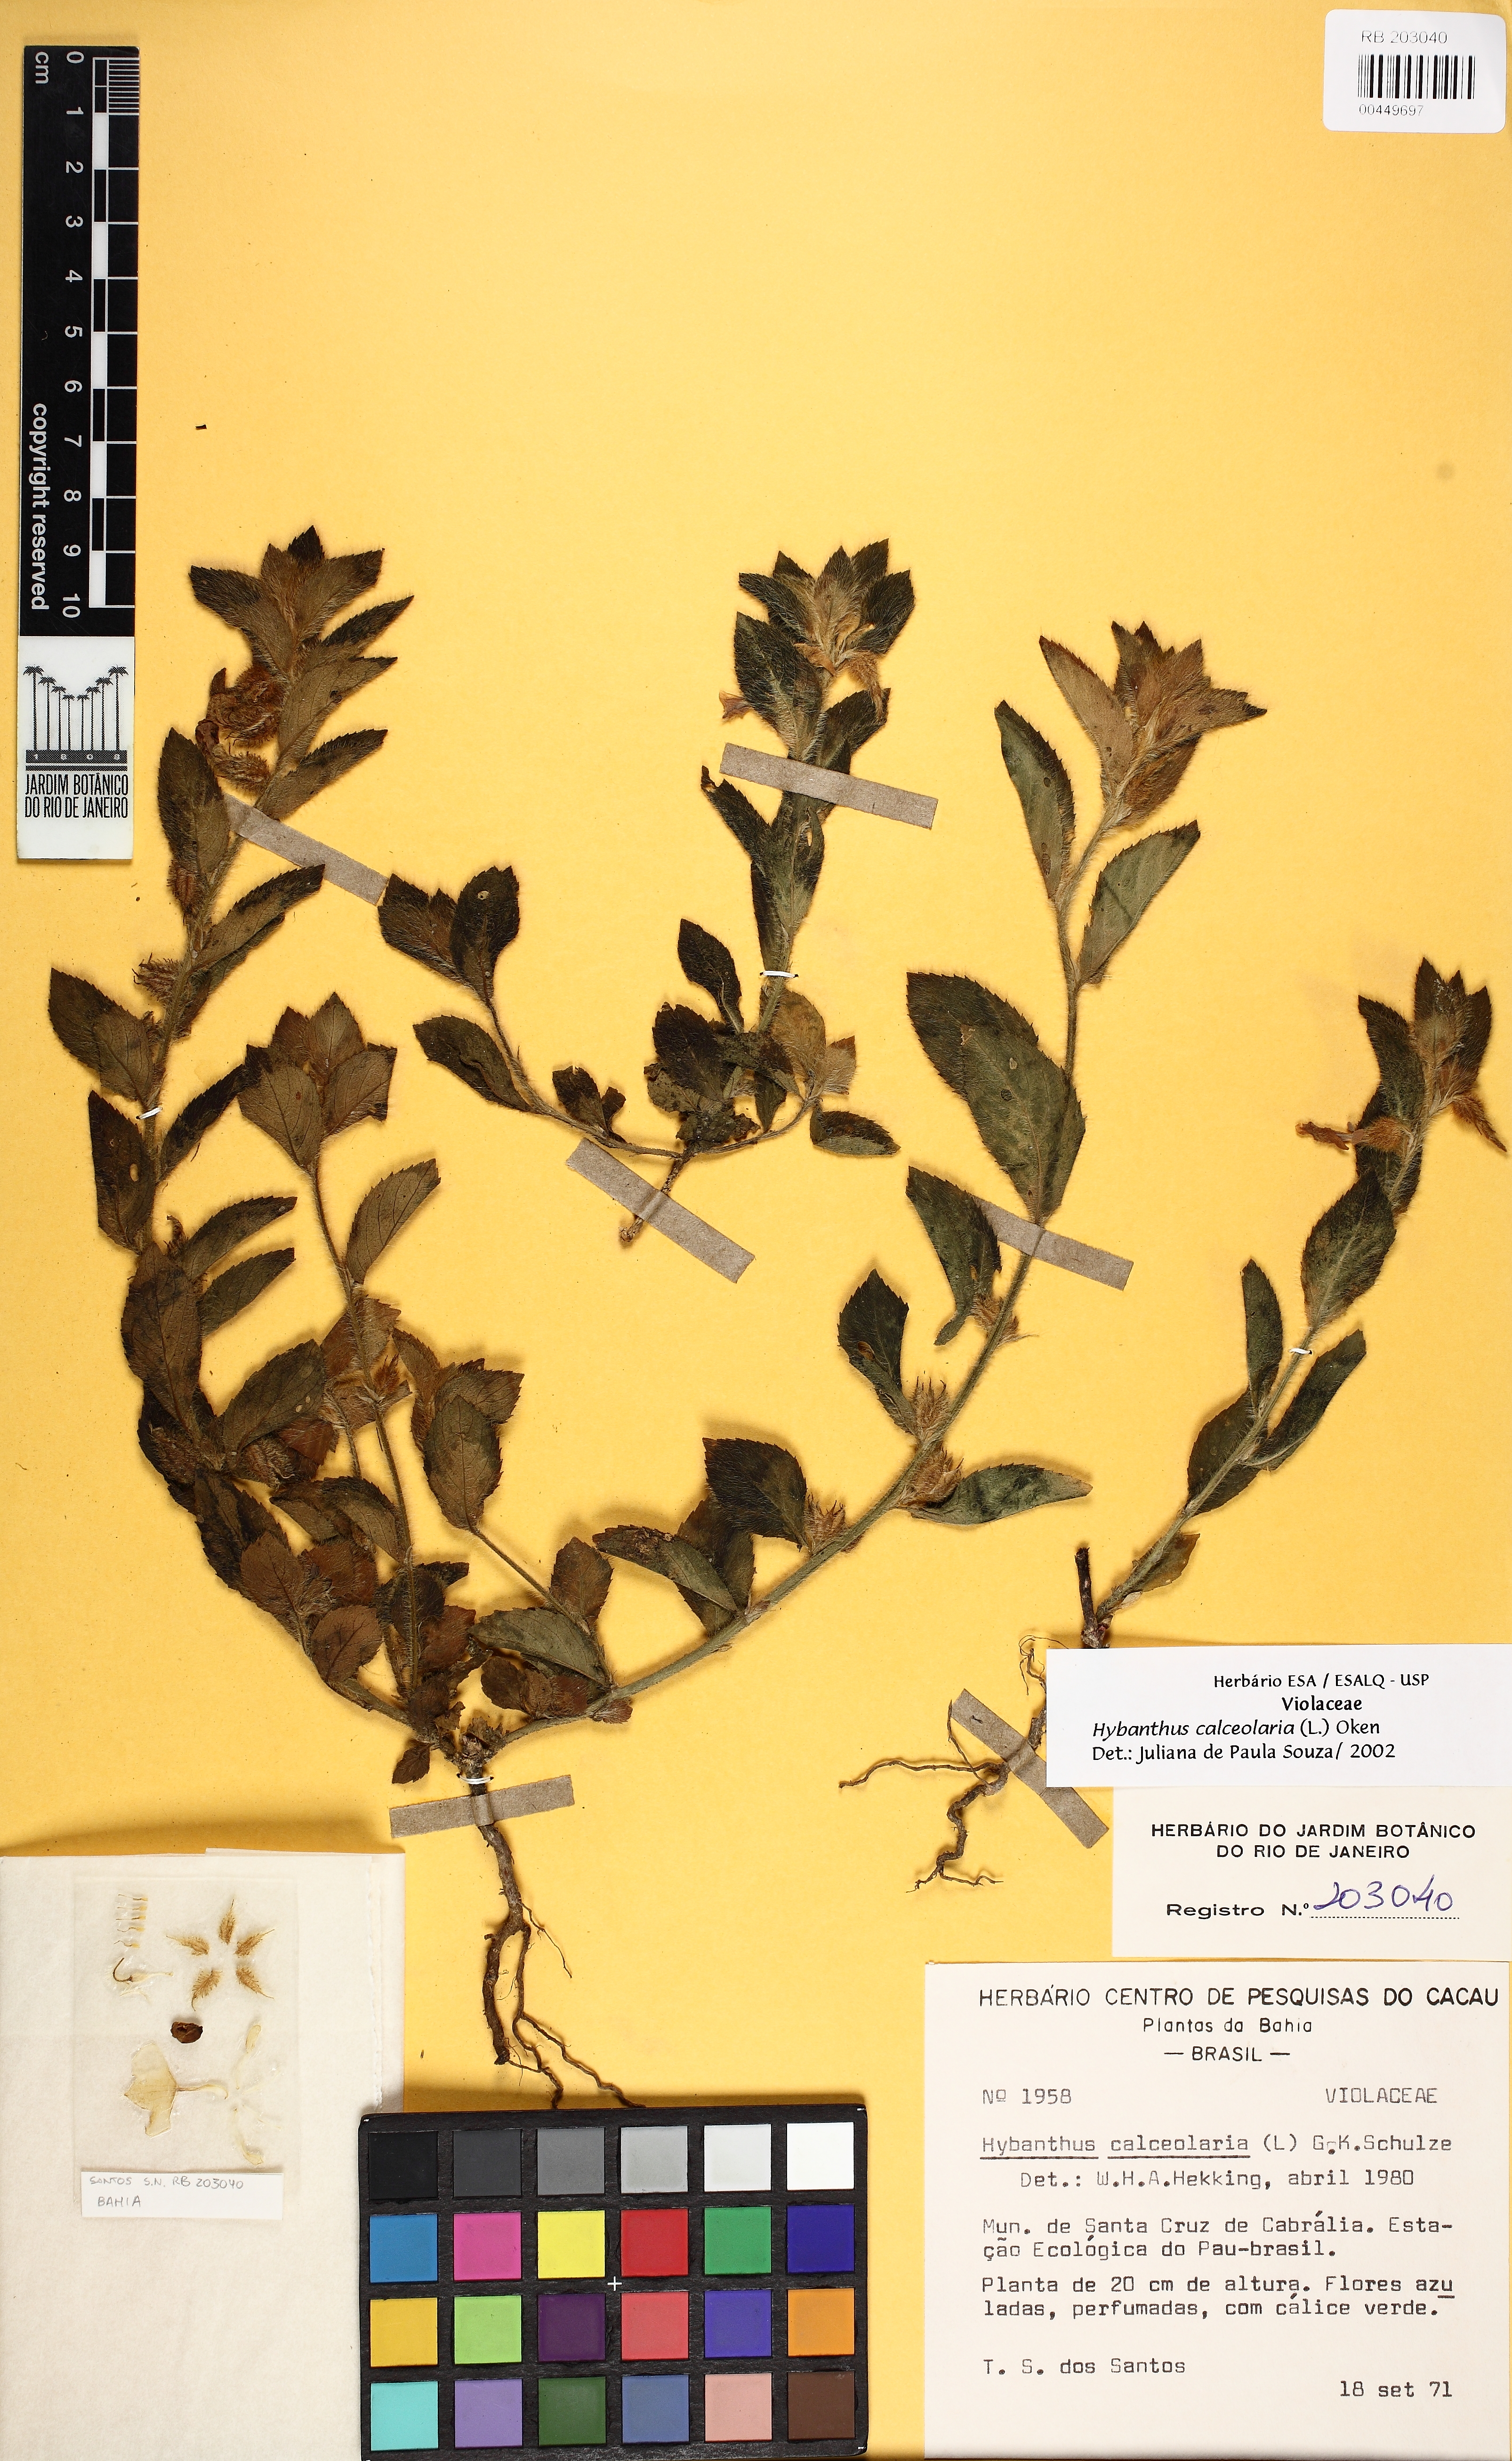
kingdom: Plantae
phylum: Tracheophyta
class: Magnoliopsida
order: Malpighiales
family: Violaceae
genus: Pombalia
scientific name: Pombalia calceolaria
